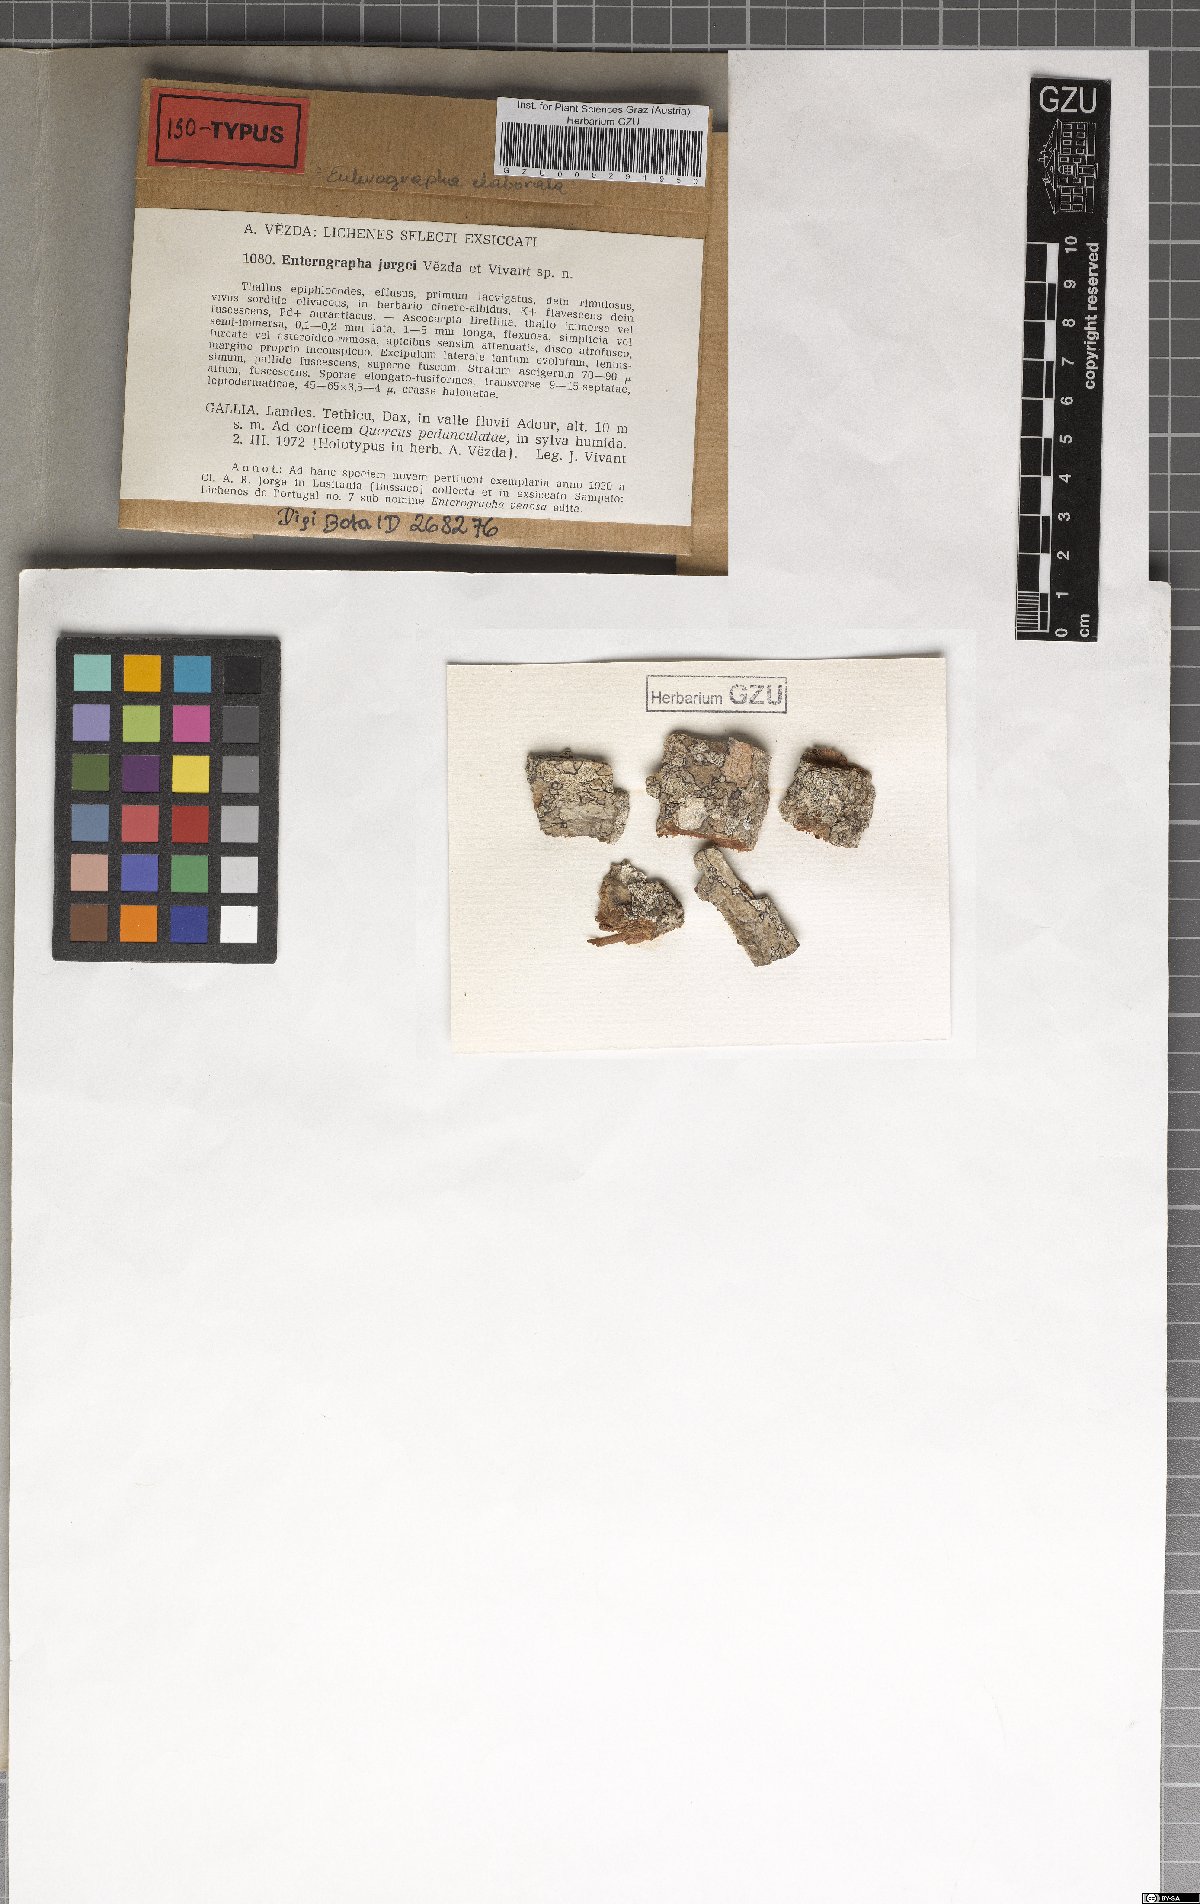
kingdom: Fungi
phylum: Ascomycota
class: Arthoniomycetes
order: Arthoniales
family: Roccellaceae
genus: Enterographa
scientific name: Enterographa elaborata
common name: New forest beech-lichen
